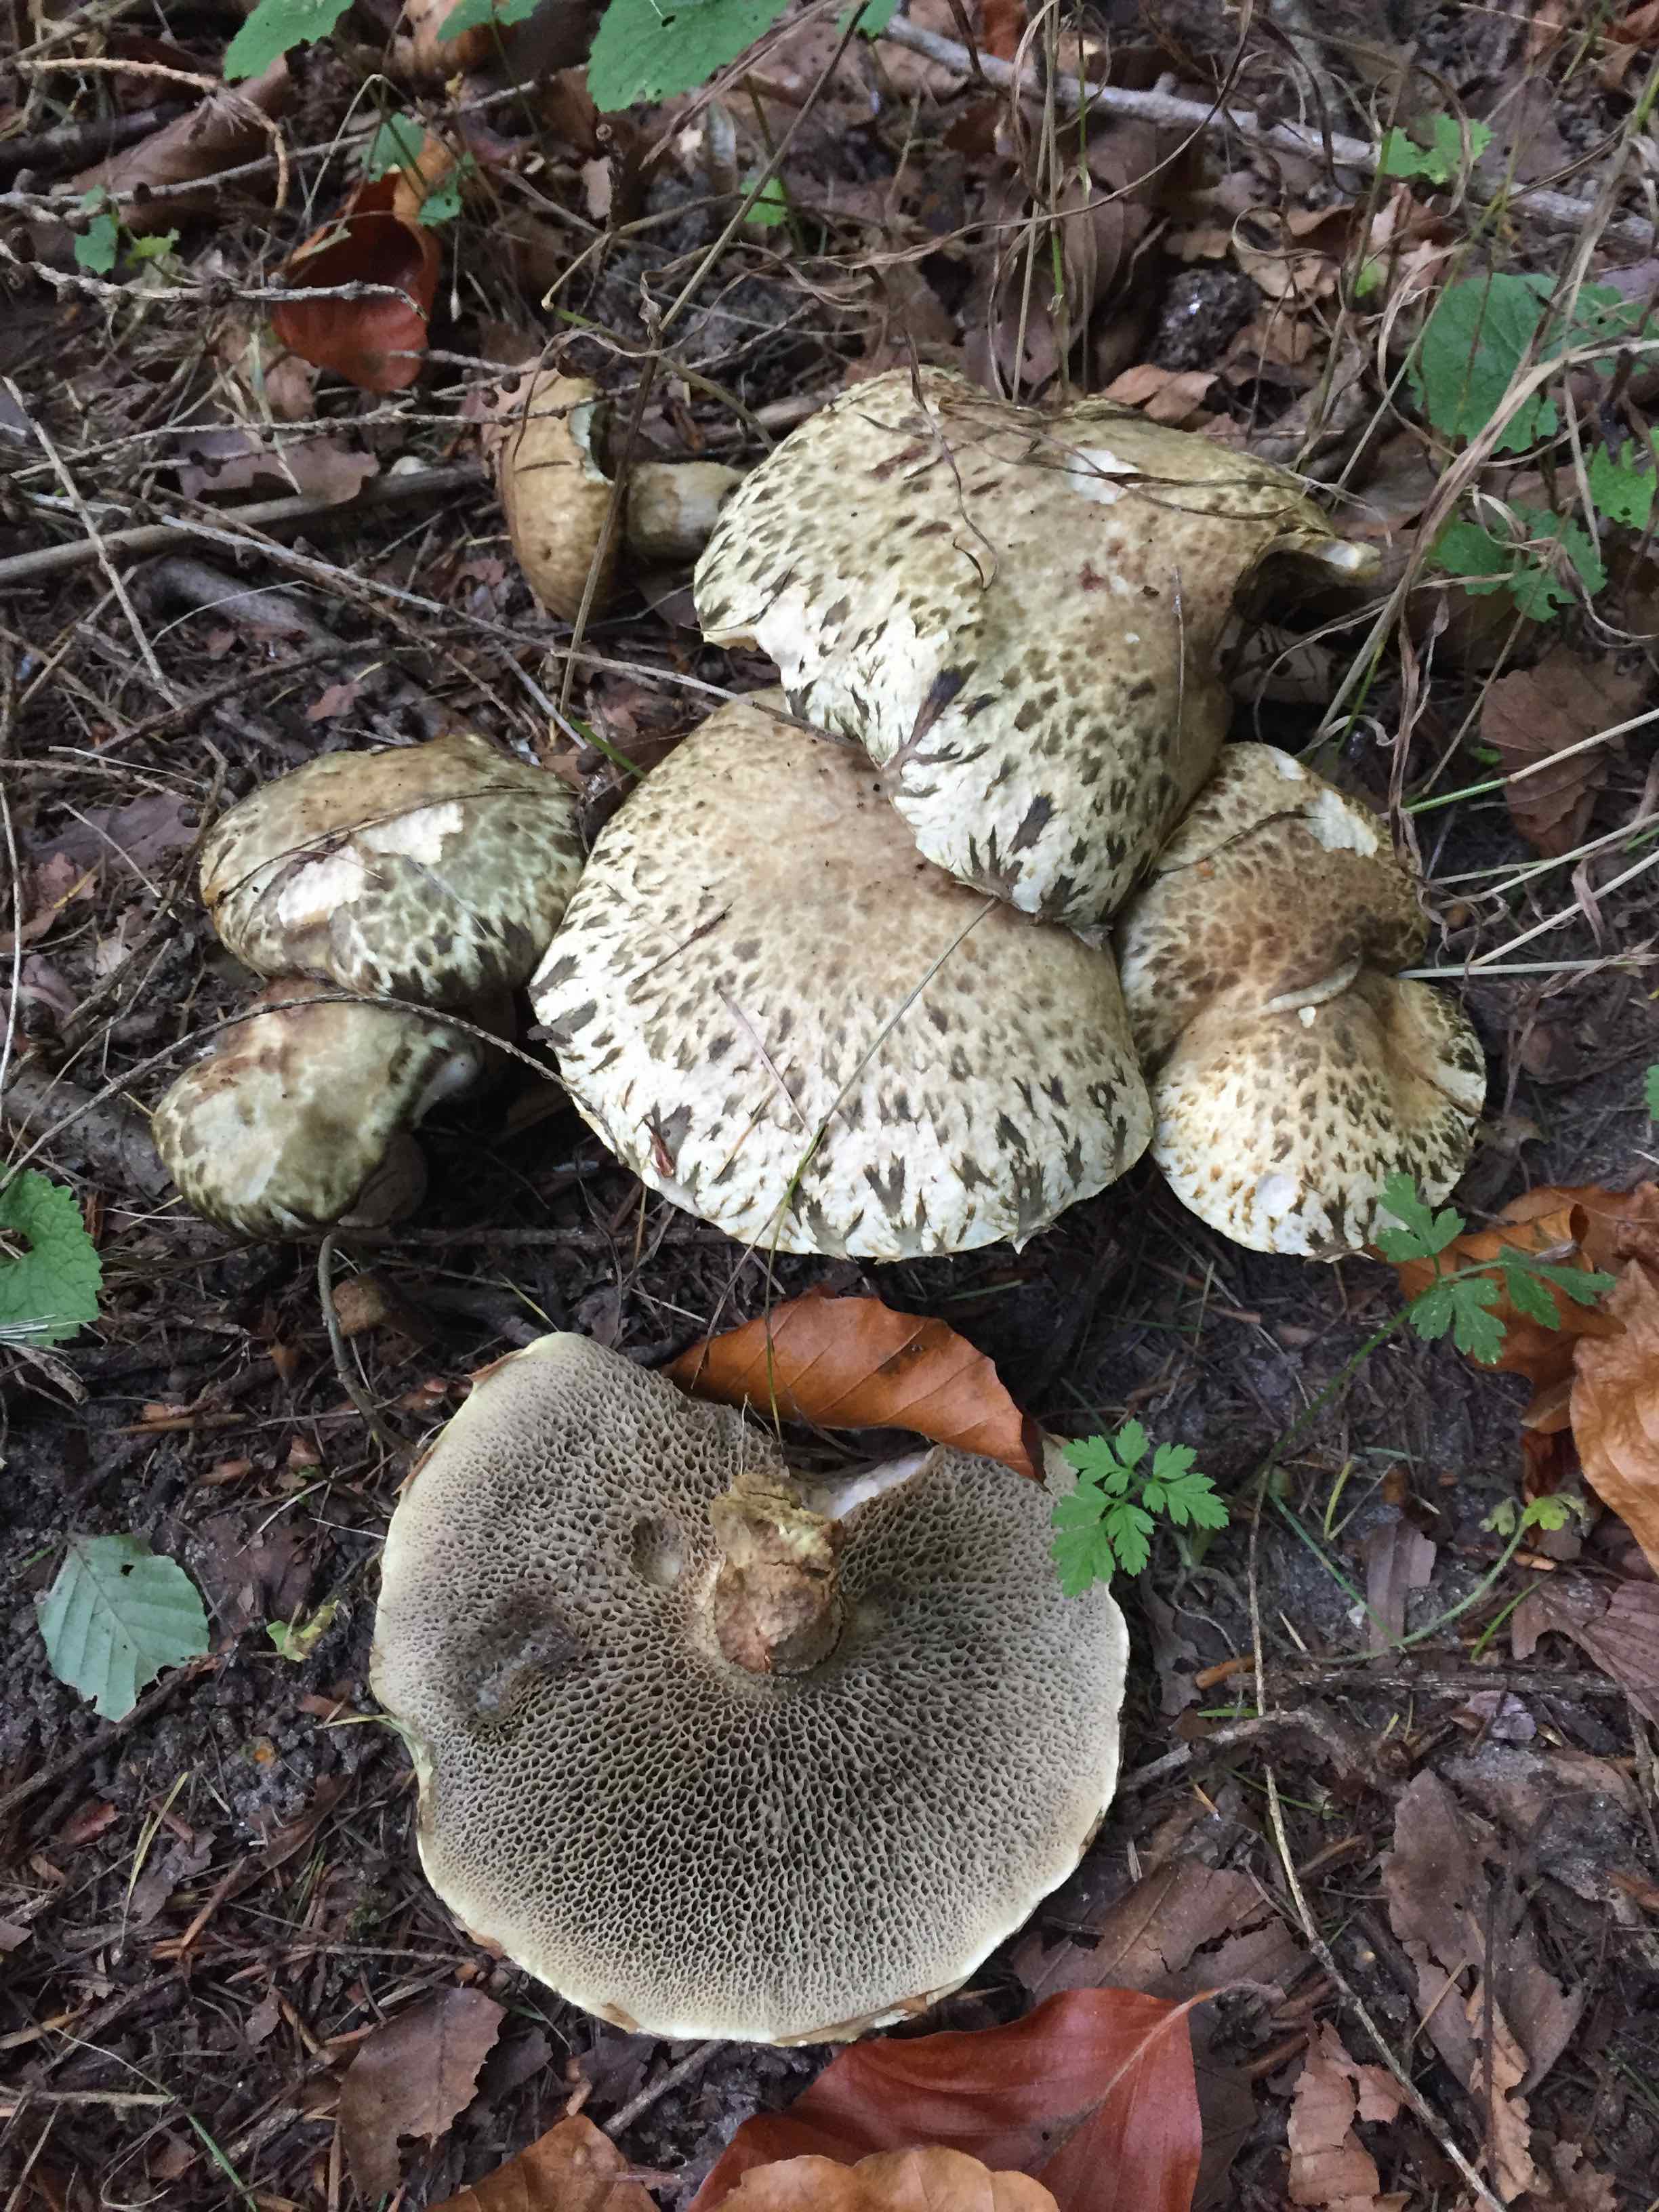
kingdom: Fungi
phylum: Basidiomycota
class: Agaricomycetes
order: Boletales
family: Suillaceae
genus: Suillus
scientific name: Suillus viscidus
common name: olivengrå slimrørhat
